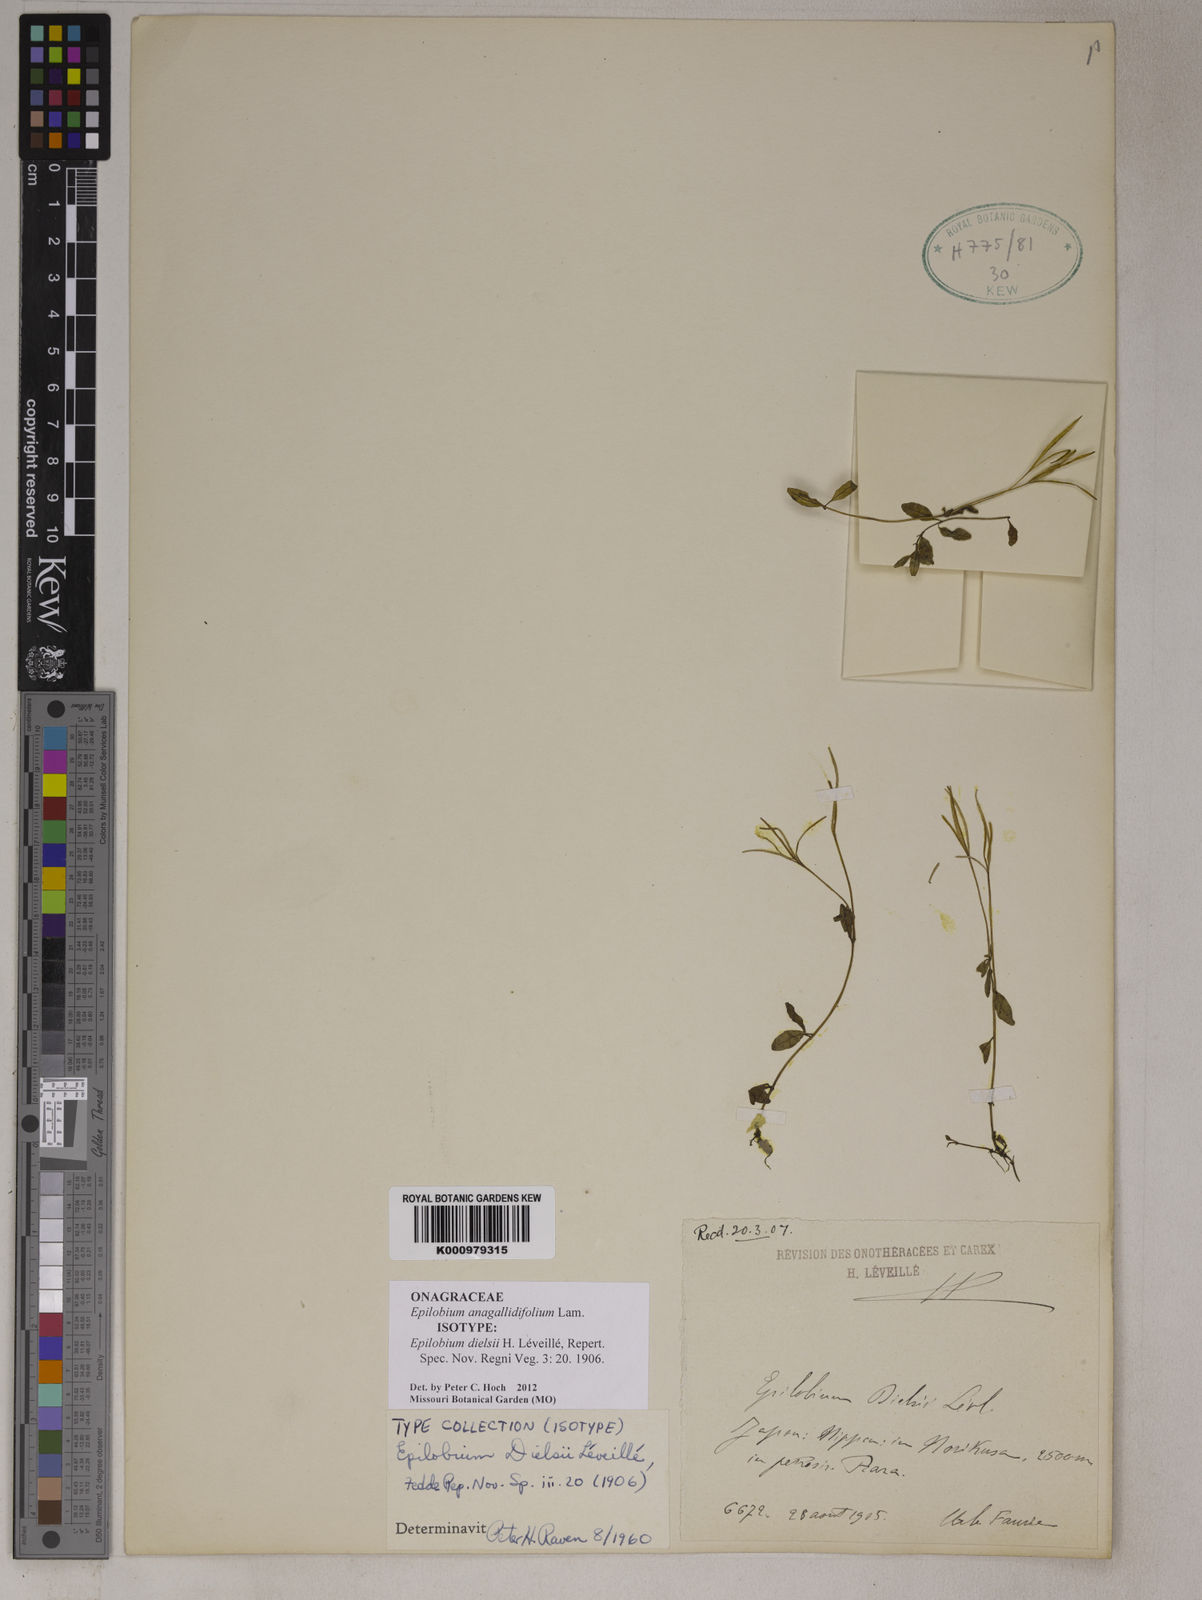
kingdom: Plantae
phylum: Tracheophyta
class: Magnoliopsida
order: Myrtales
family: Onagraceae
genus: Epilobium
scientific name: Epilobium anagallidifolium
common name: Alpine willowherb
